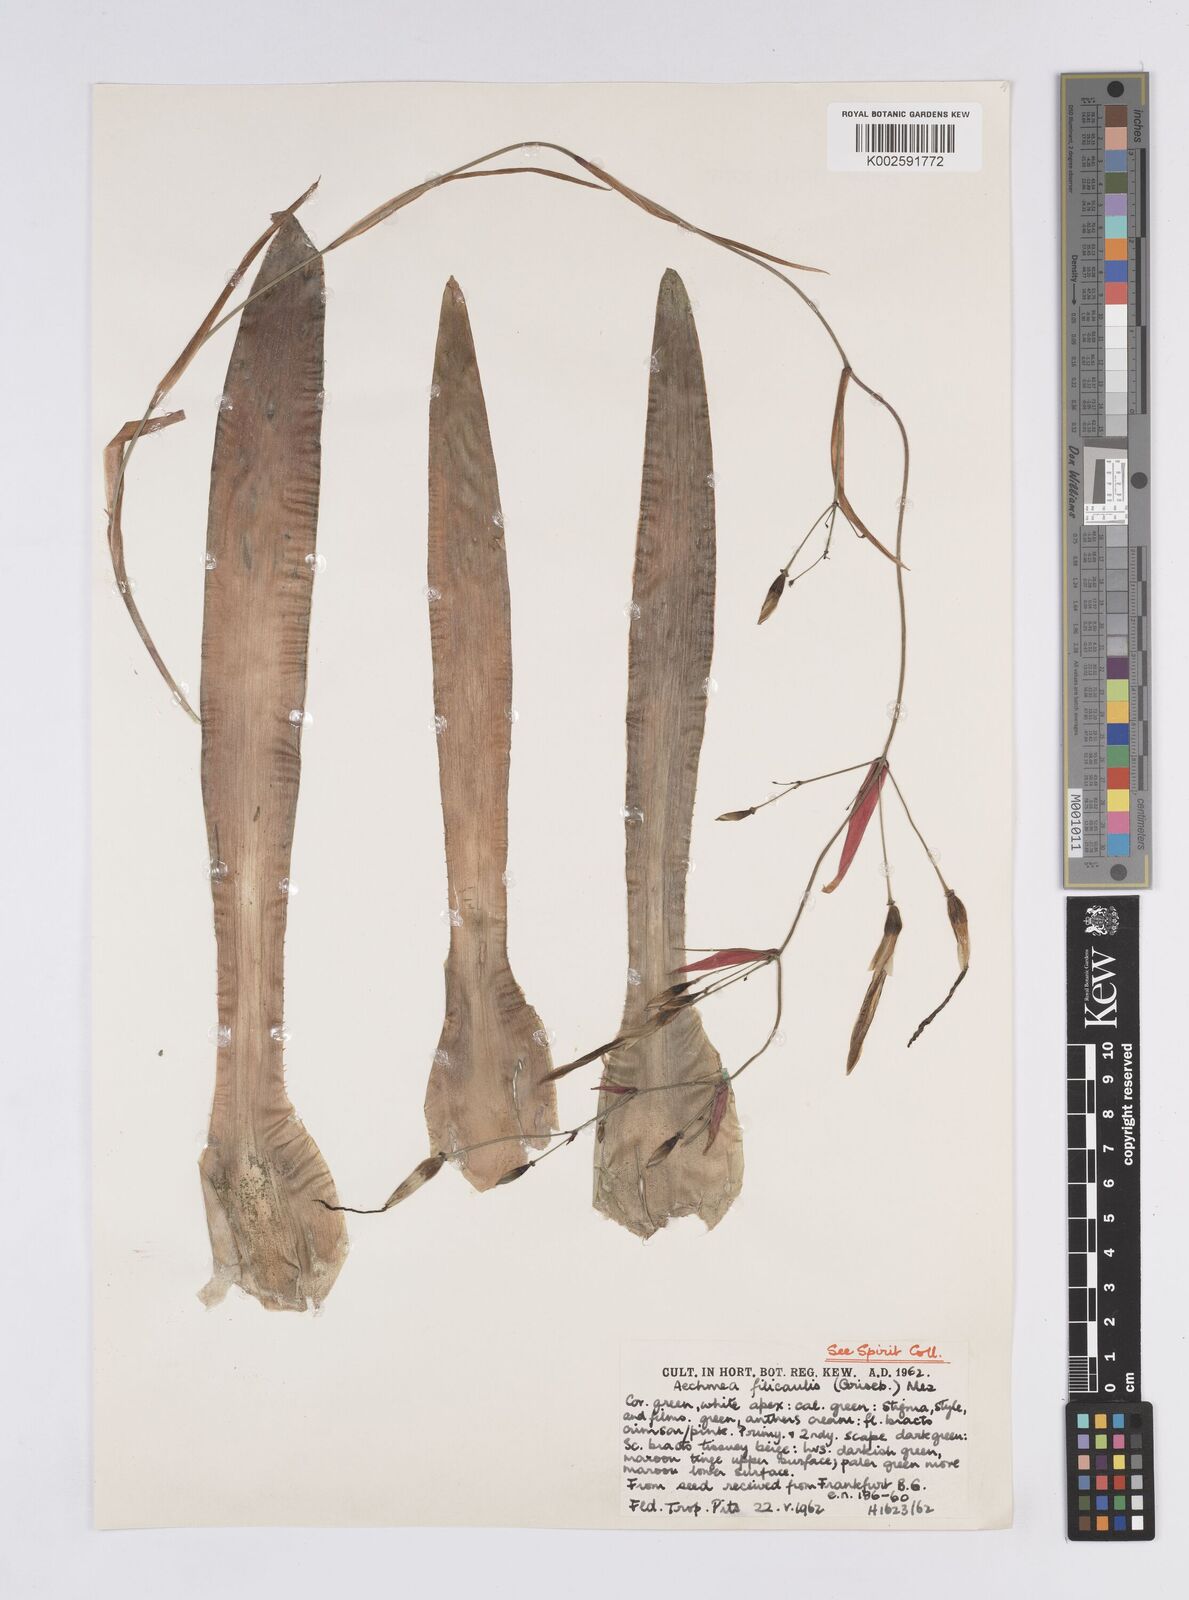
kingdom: Plantae
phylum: Tracheophyta
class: Liliopsida
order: Poales
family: Bromeliaceae
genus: Aechmea
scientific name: Aechmea filicaulis
